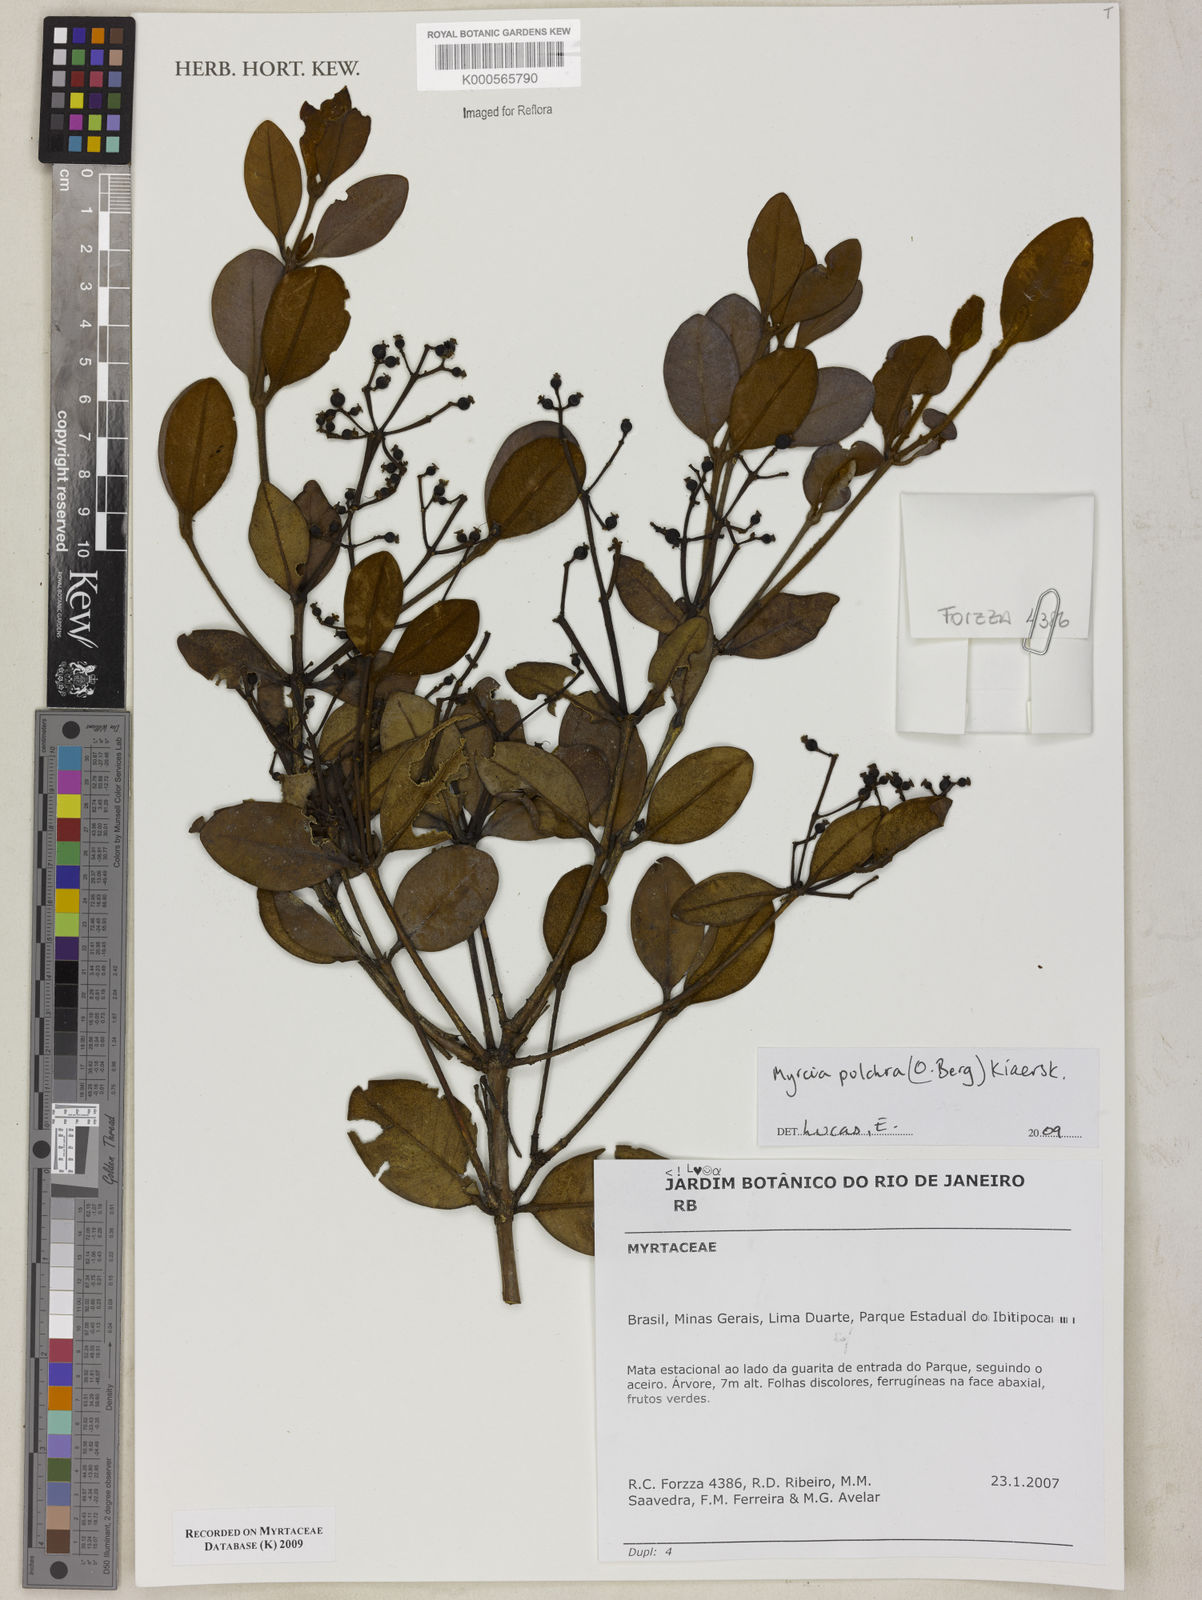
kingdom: Plantae
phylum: Tracheophyta
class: Magnoliopsida
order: Myrtales
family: Myrtaceae
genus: Myrcia
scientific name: Myrcia pulchra
